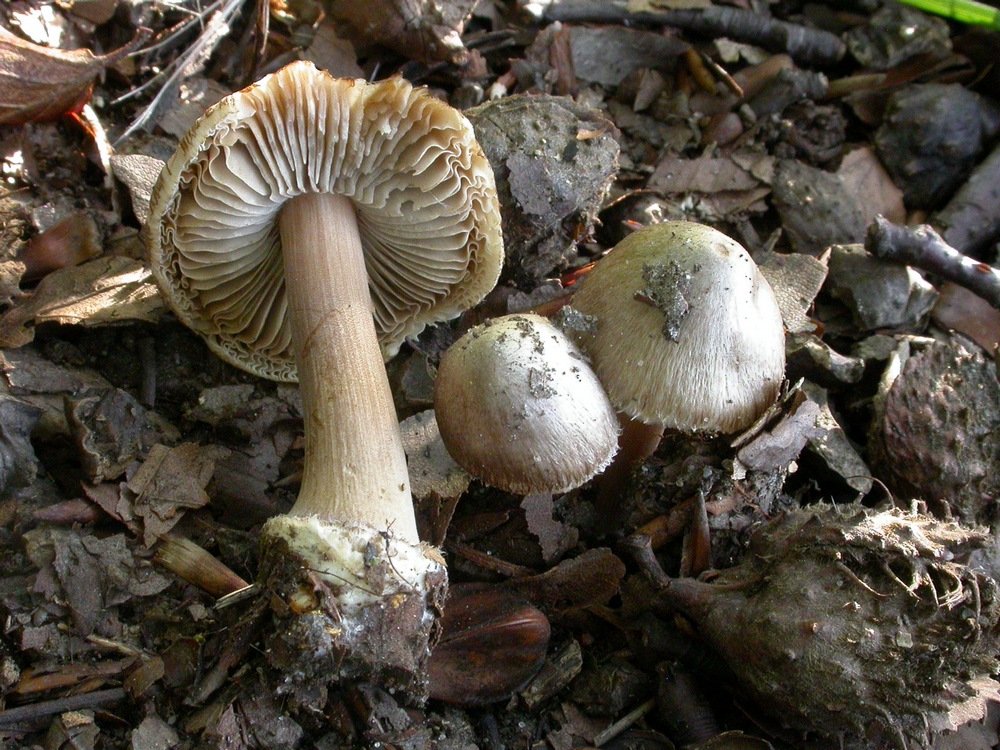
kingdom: Fungi
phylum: Basidiomycota
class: Agaricomycetes
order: Agaricales
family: Inocybaceae
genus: Inocybe
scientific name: Inocybe asterospora
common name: stjernesporet trævlhat
